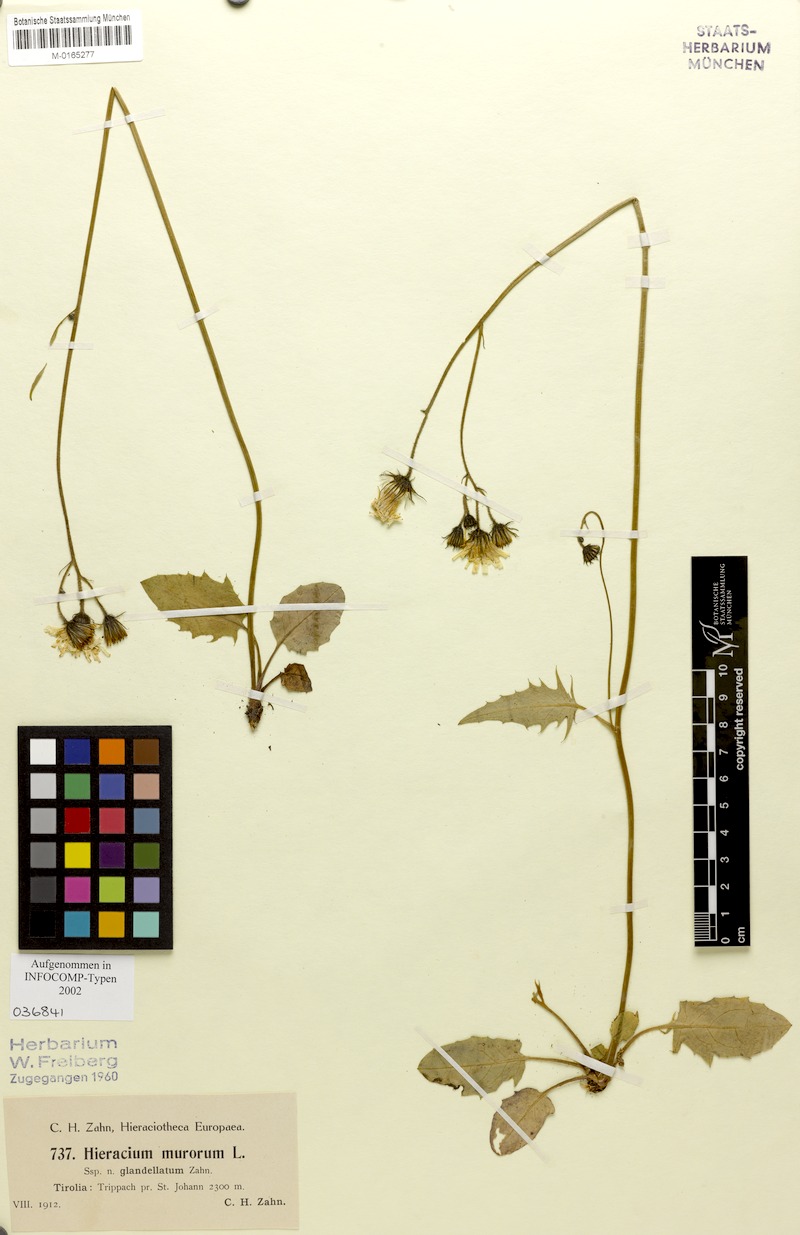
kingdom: Plantae
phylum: Tracheophyta
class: Magnoliopsida
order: Asterales
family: Asteraceae
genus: Hieracium
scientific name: Hieracium murorum
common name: Wall hawkweed
